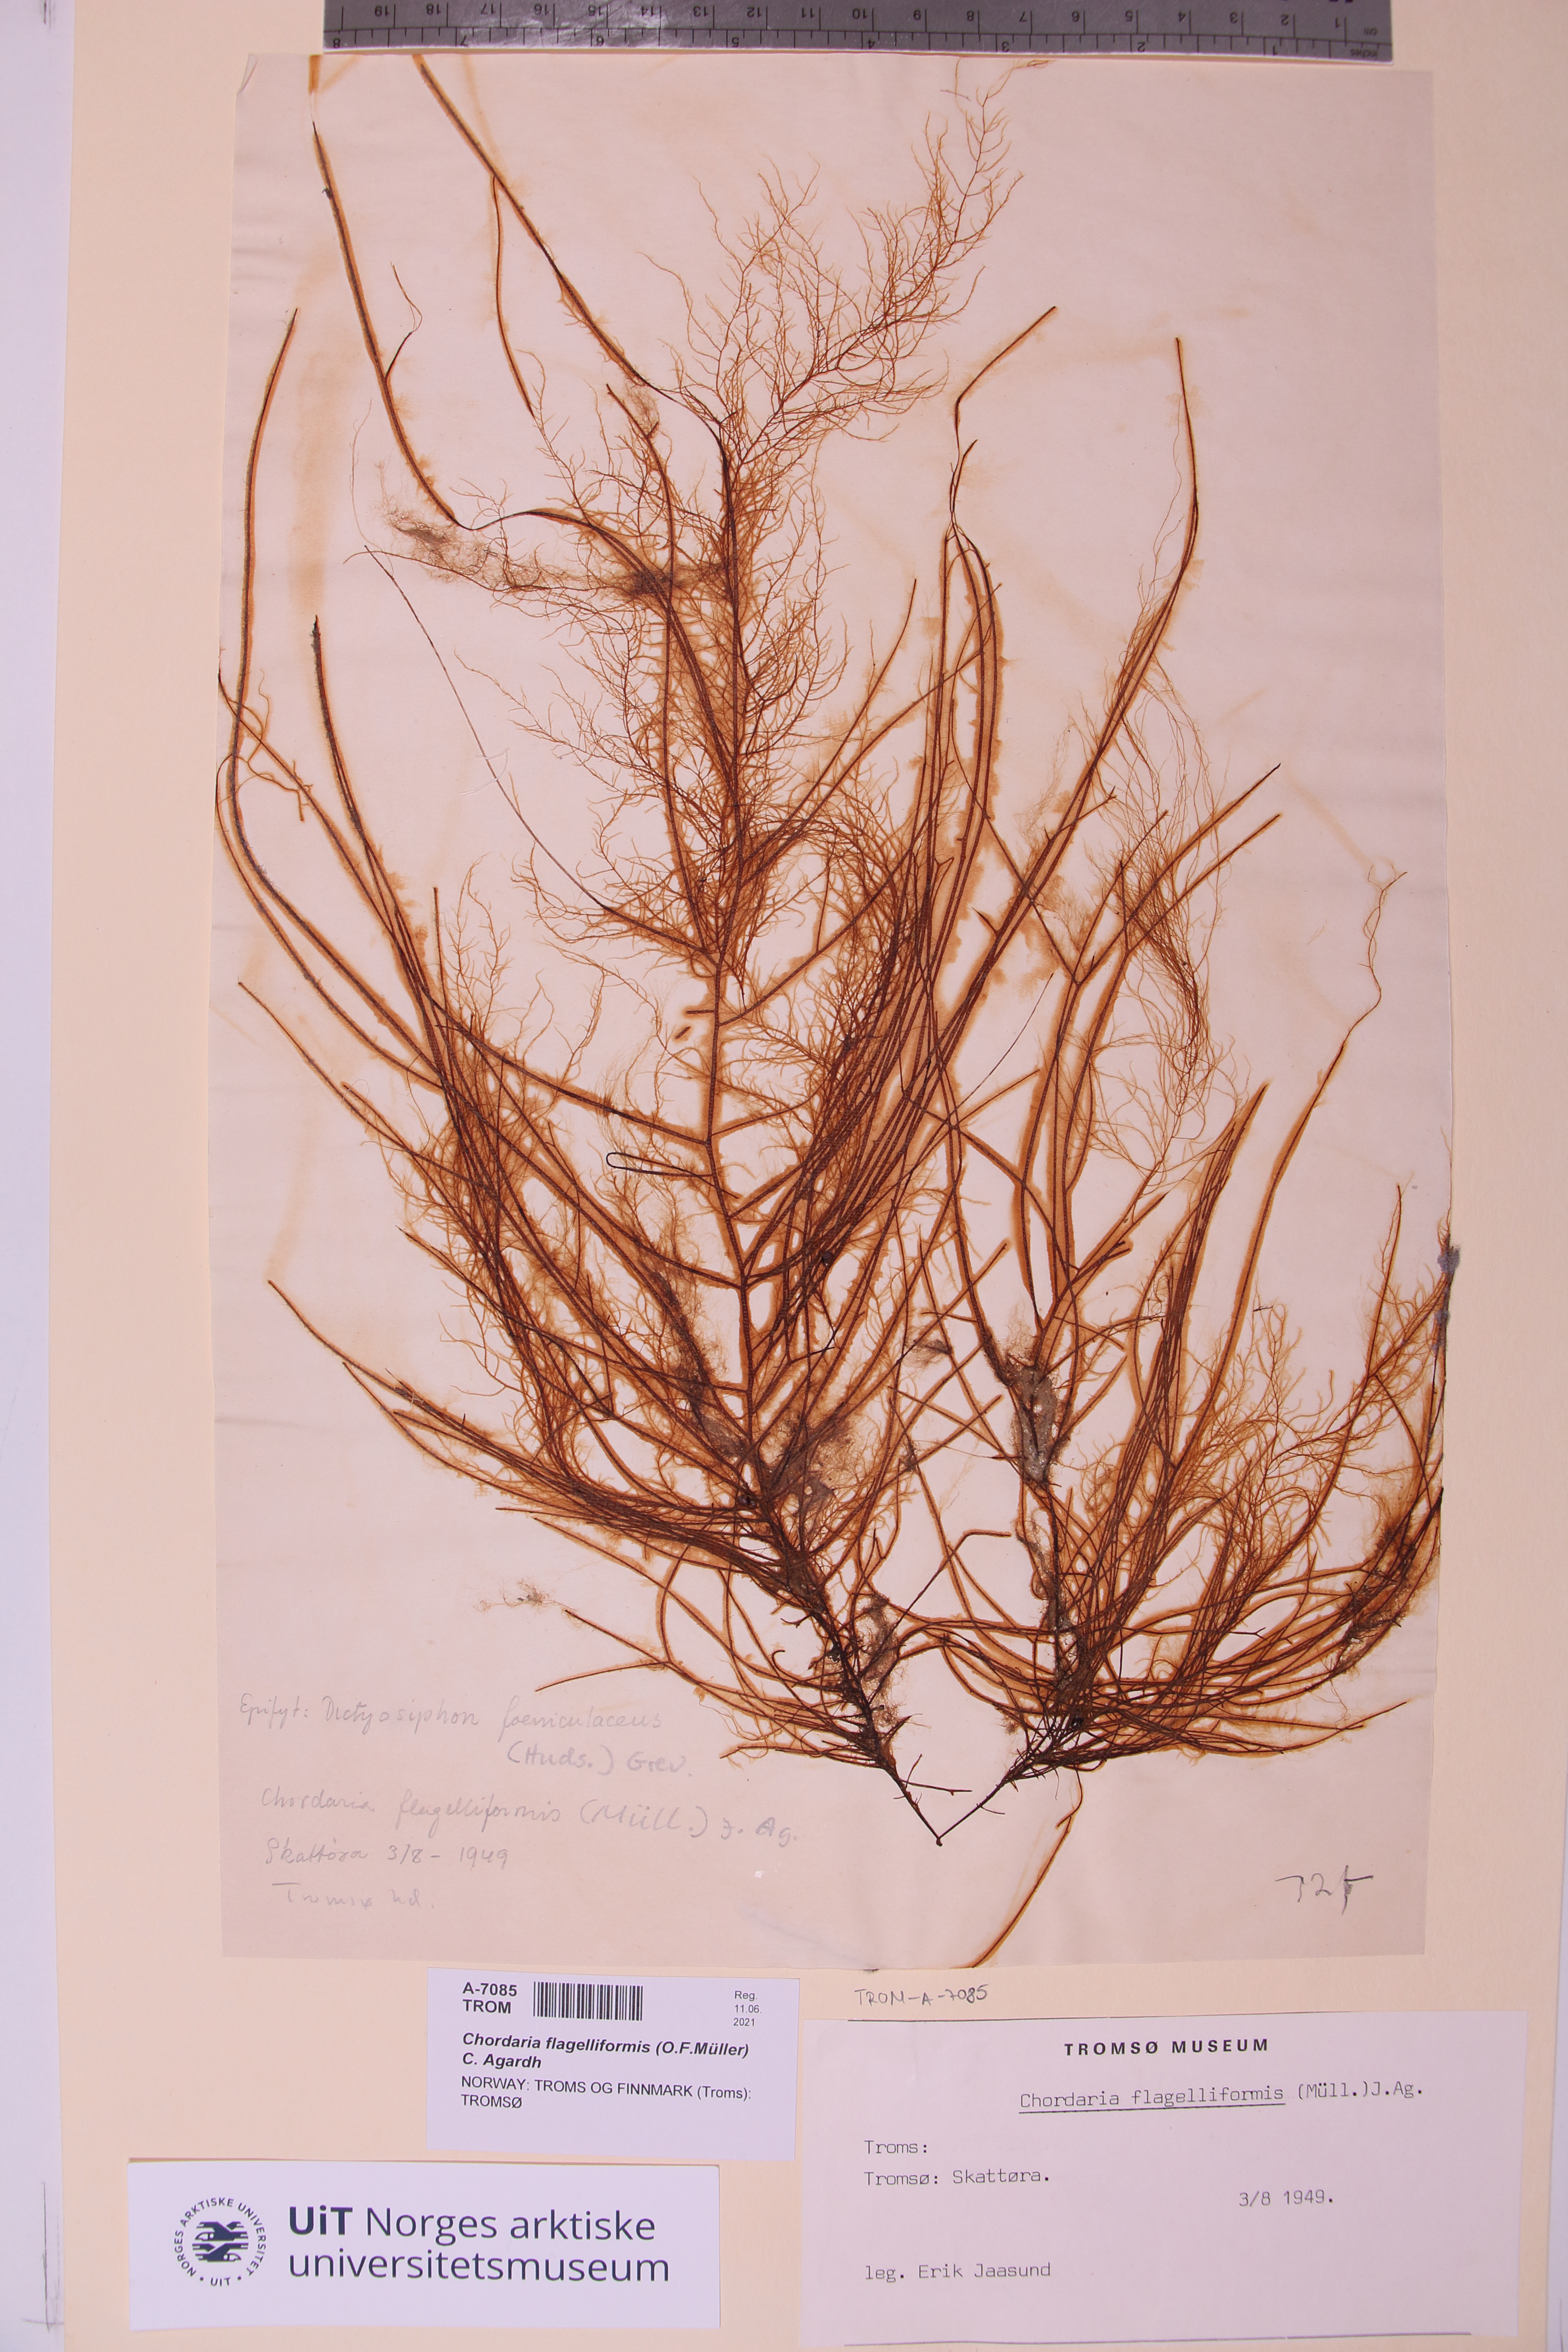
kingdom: Chromista
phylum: Ochrophyta
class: Phaeophyceae
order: Ectocarpales
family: Chordariaceae
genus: Chordaria
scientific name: Chordaria flagelliformis
